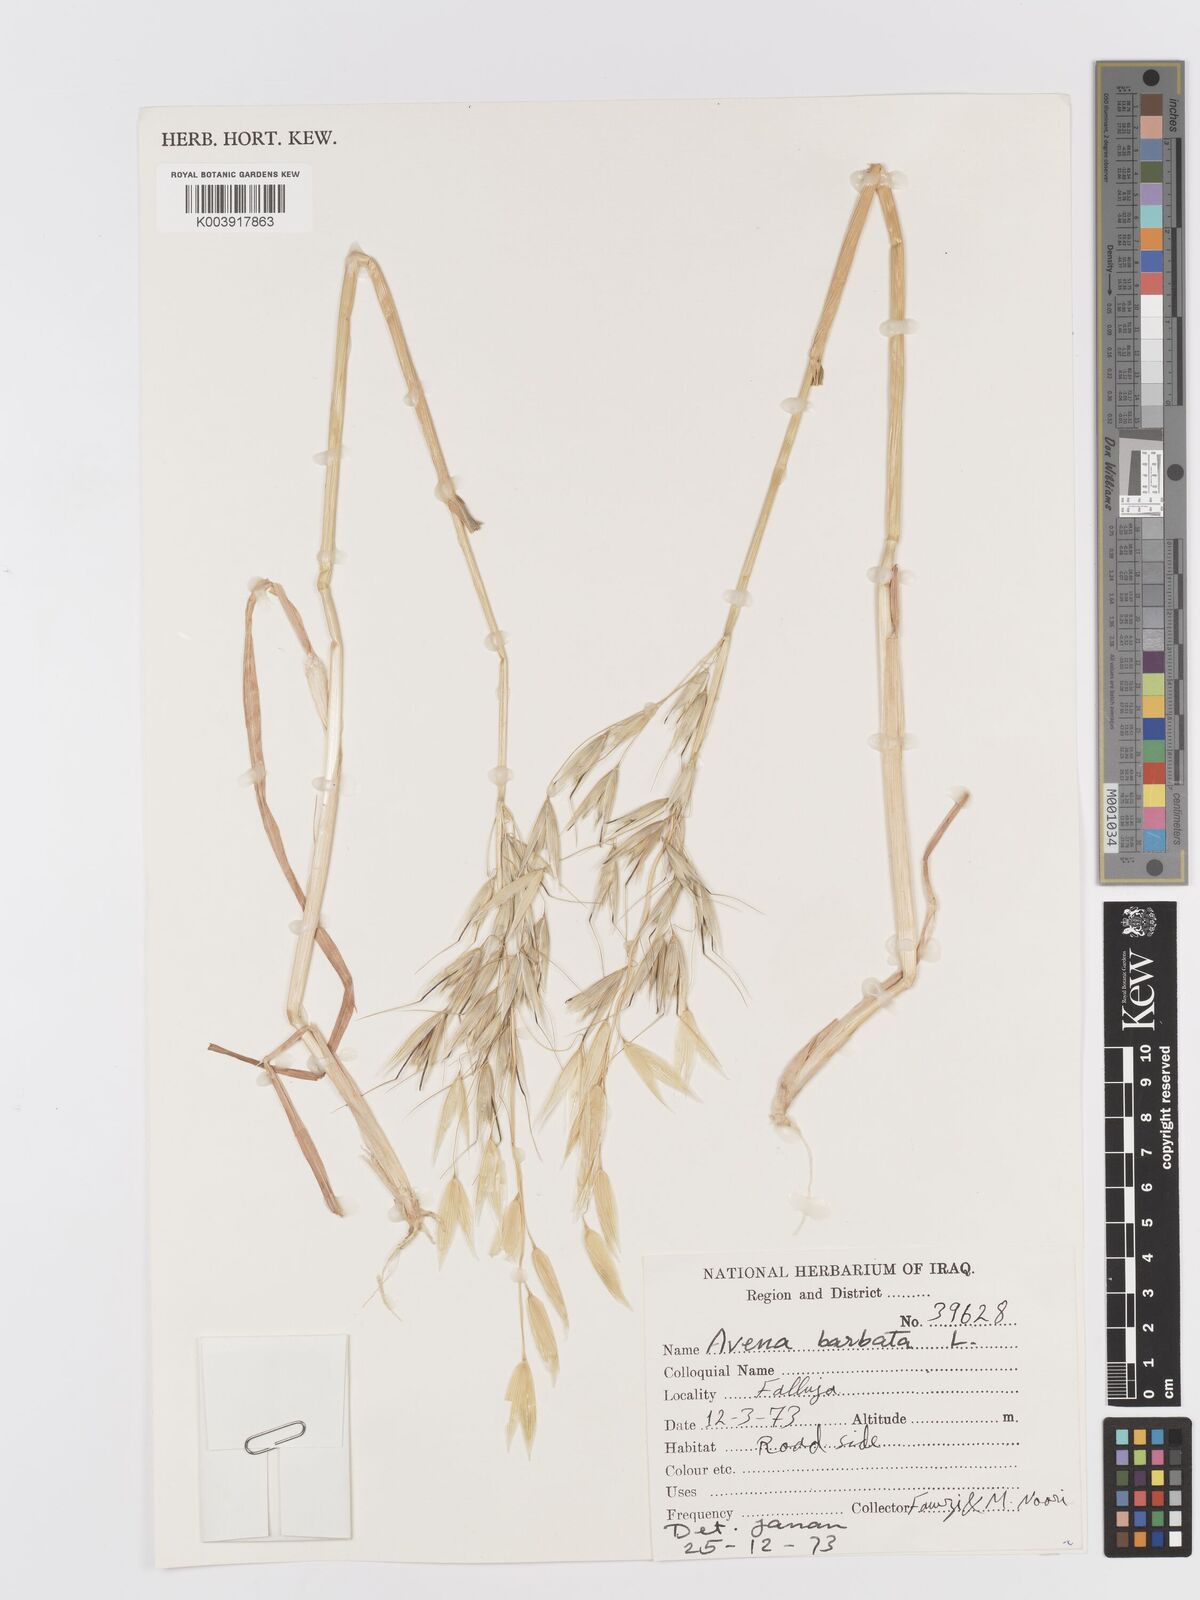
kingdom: Plantae
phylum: Tracheophyta
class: Liliopsida
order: Poales
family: Poaceae
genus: Avena
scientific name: Avena
